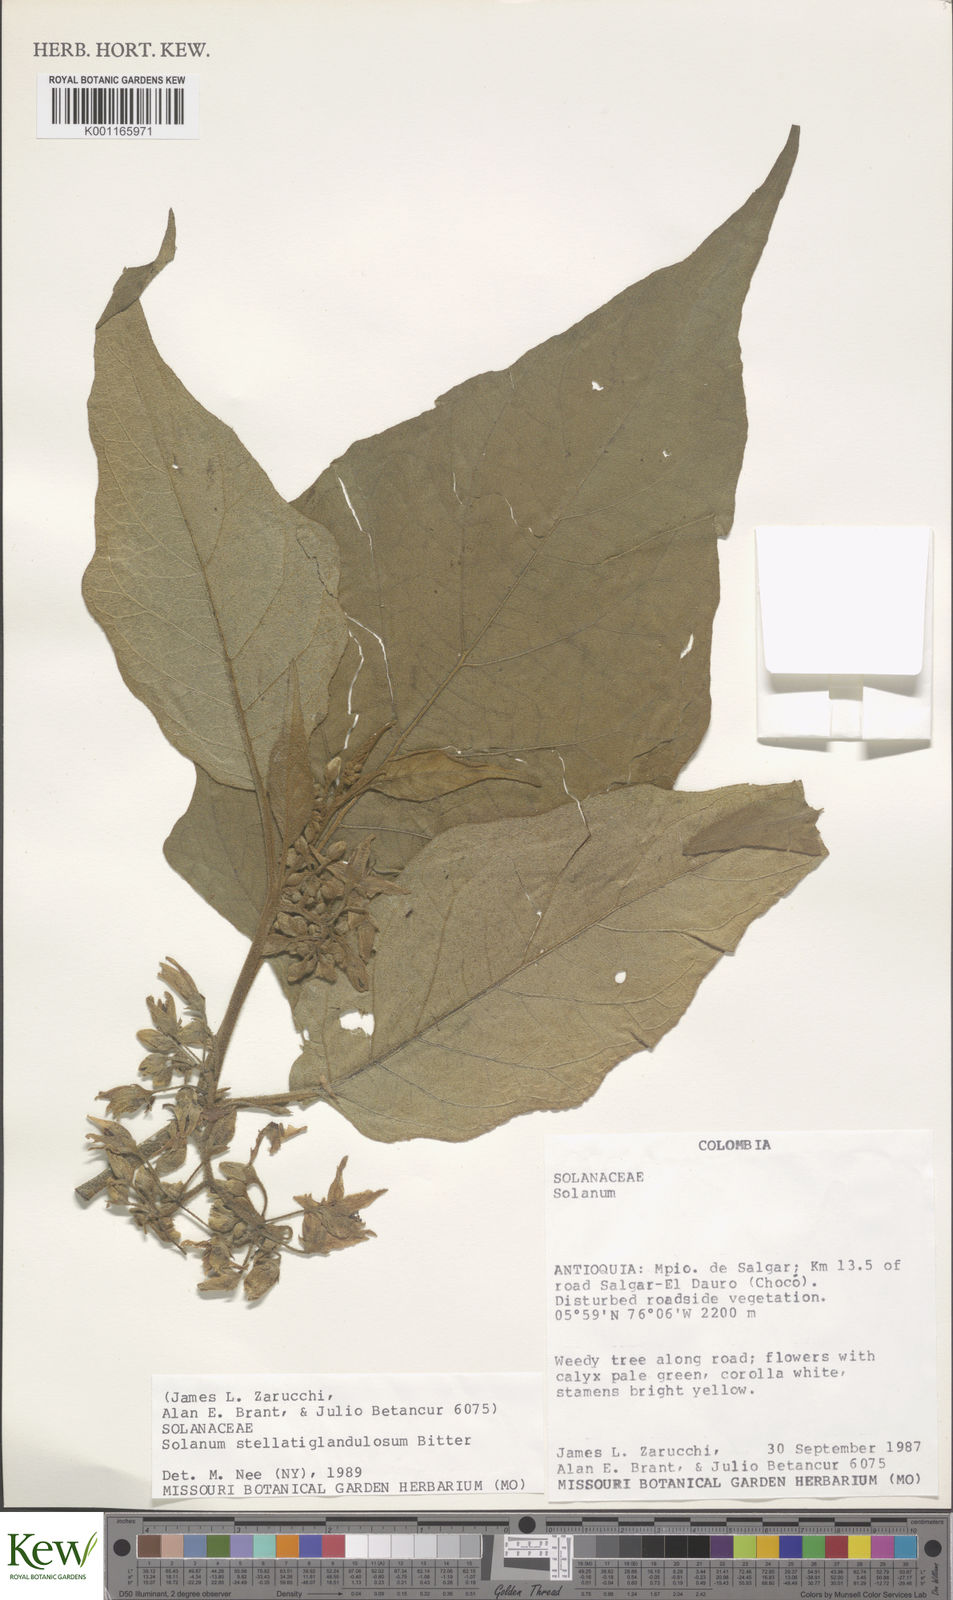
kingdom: Plantae
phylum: Tracheophyta
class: Magnoliopsida
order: Solanales
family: Solanaceae
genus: Solanum
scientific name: Solanum stellatiglandulosum
